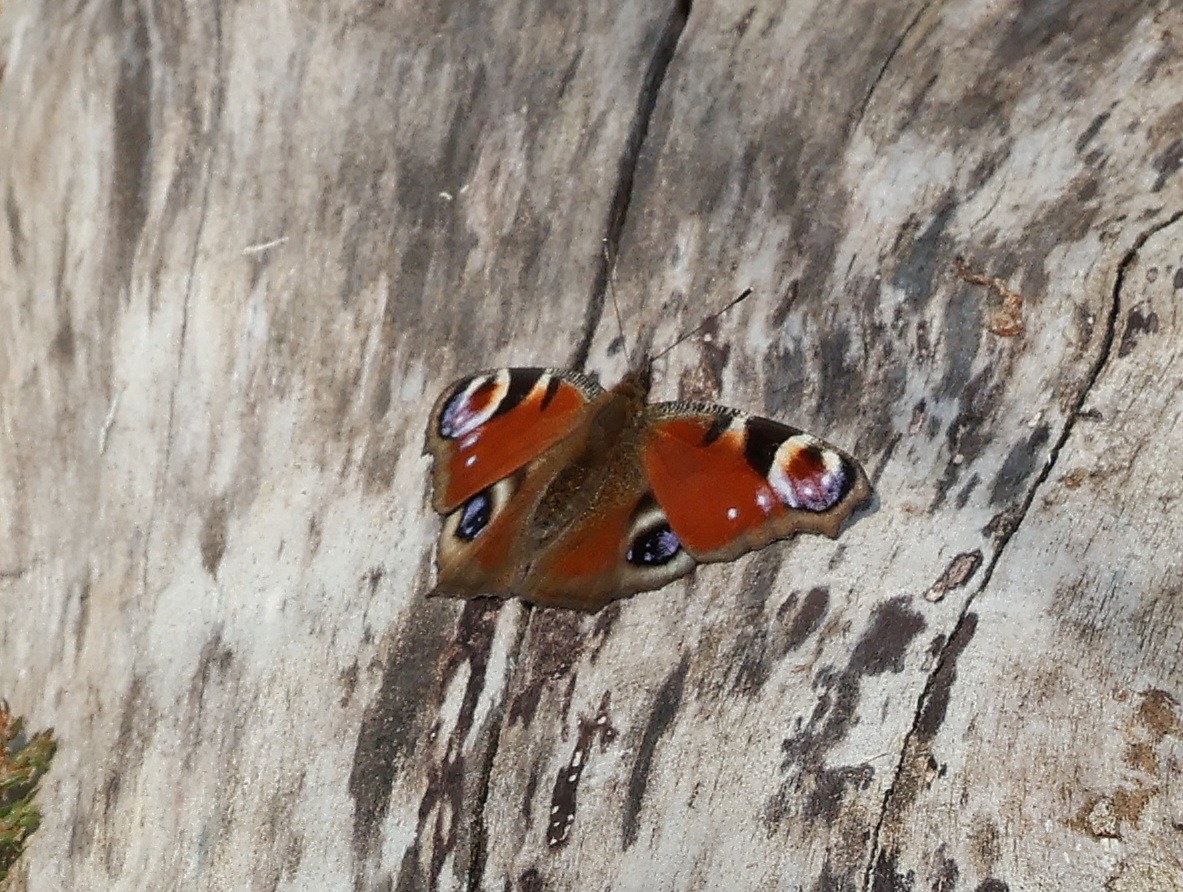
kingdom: Animalia
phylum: Arthropoda
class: Insecta
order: Lepidoptera
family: Nymphalidae
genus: Aglais
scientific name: Aglais io
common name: Dagpåfugleøje
